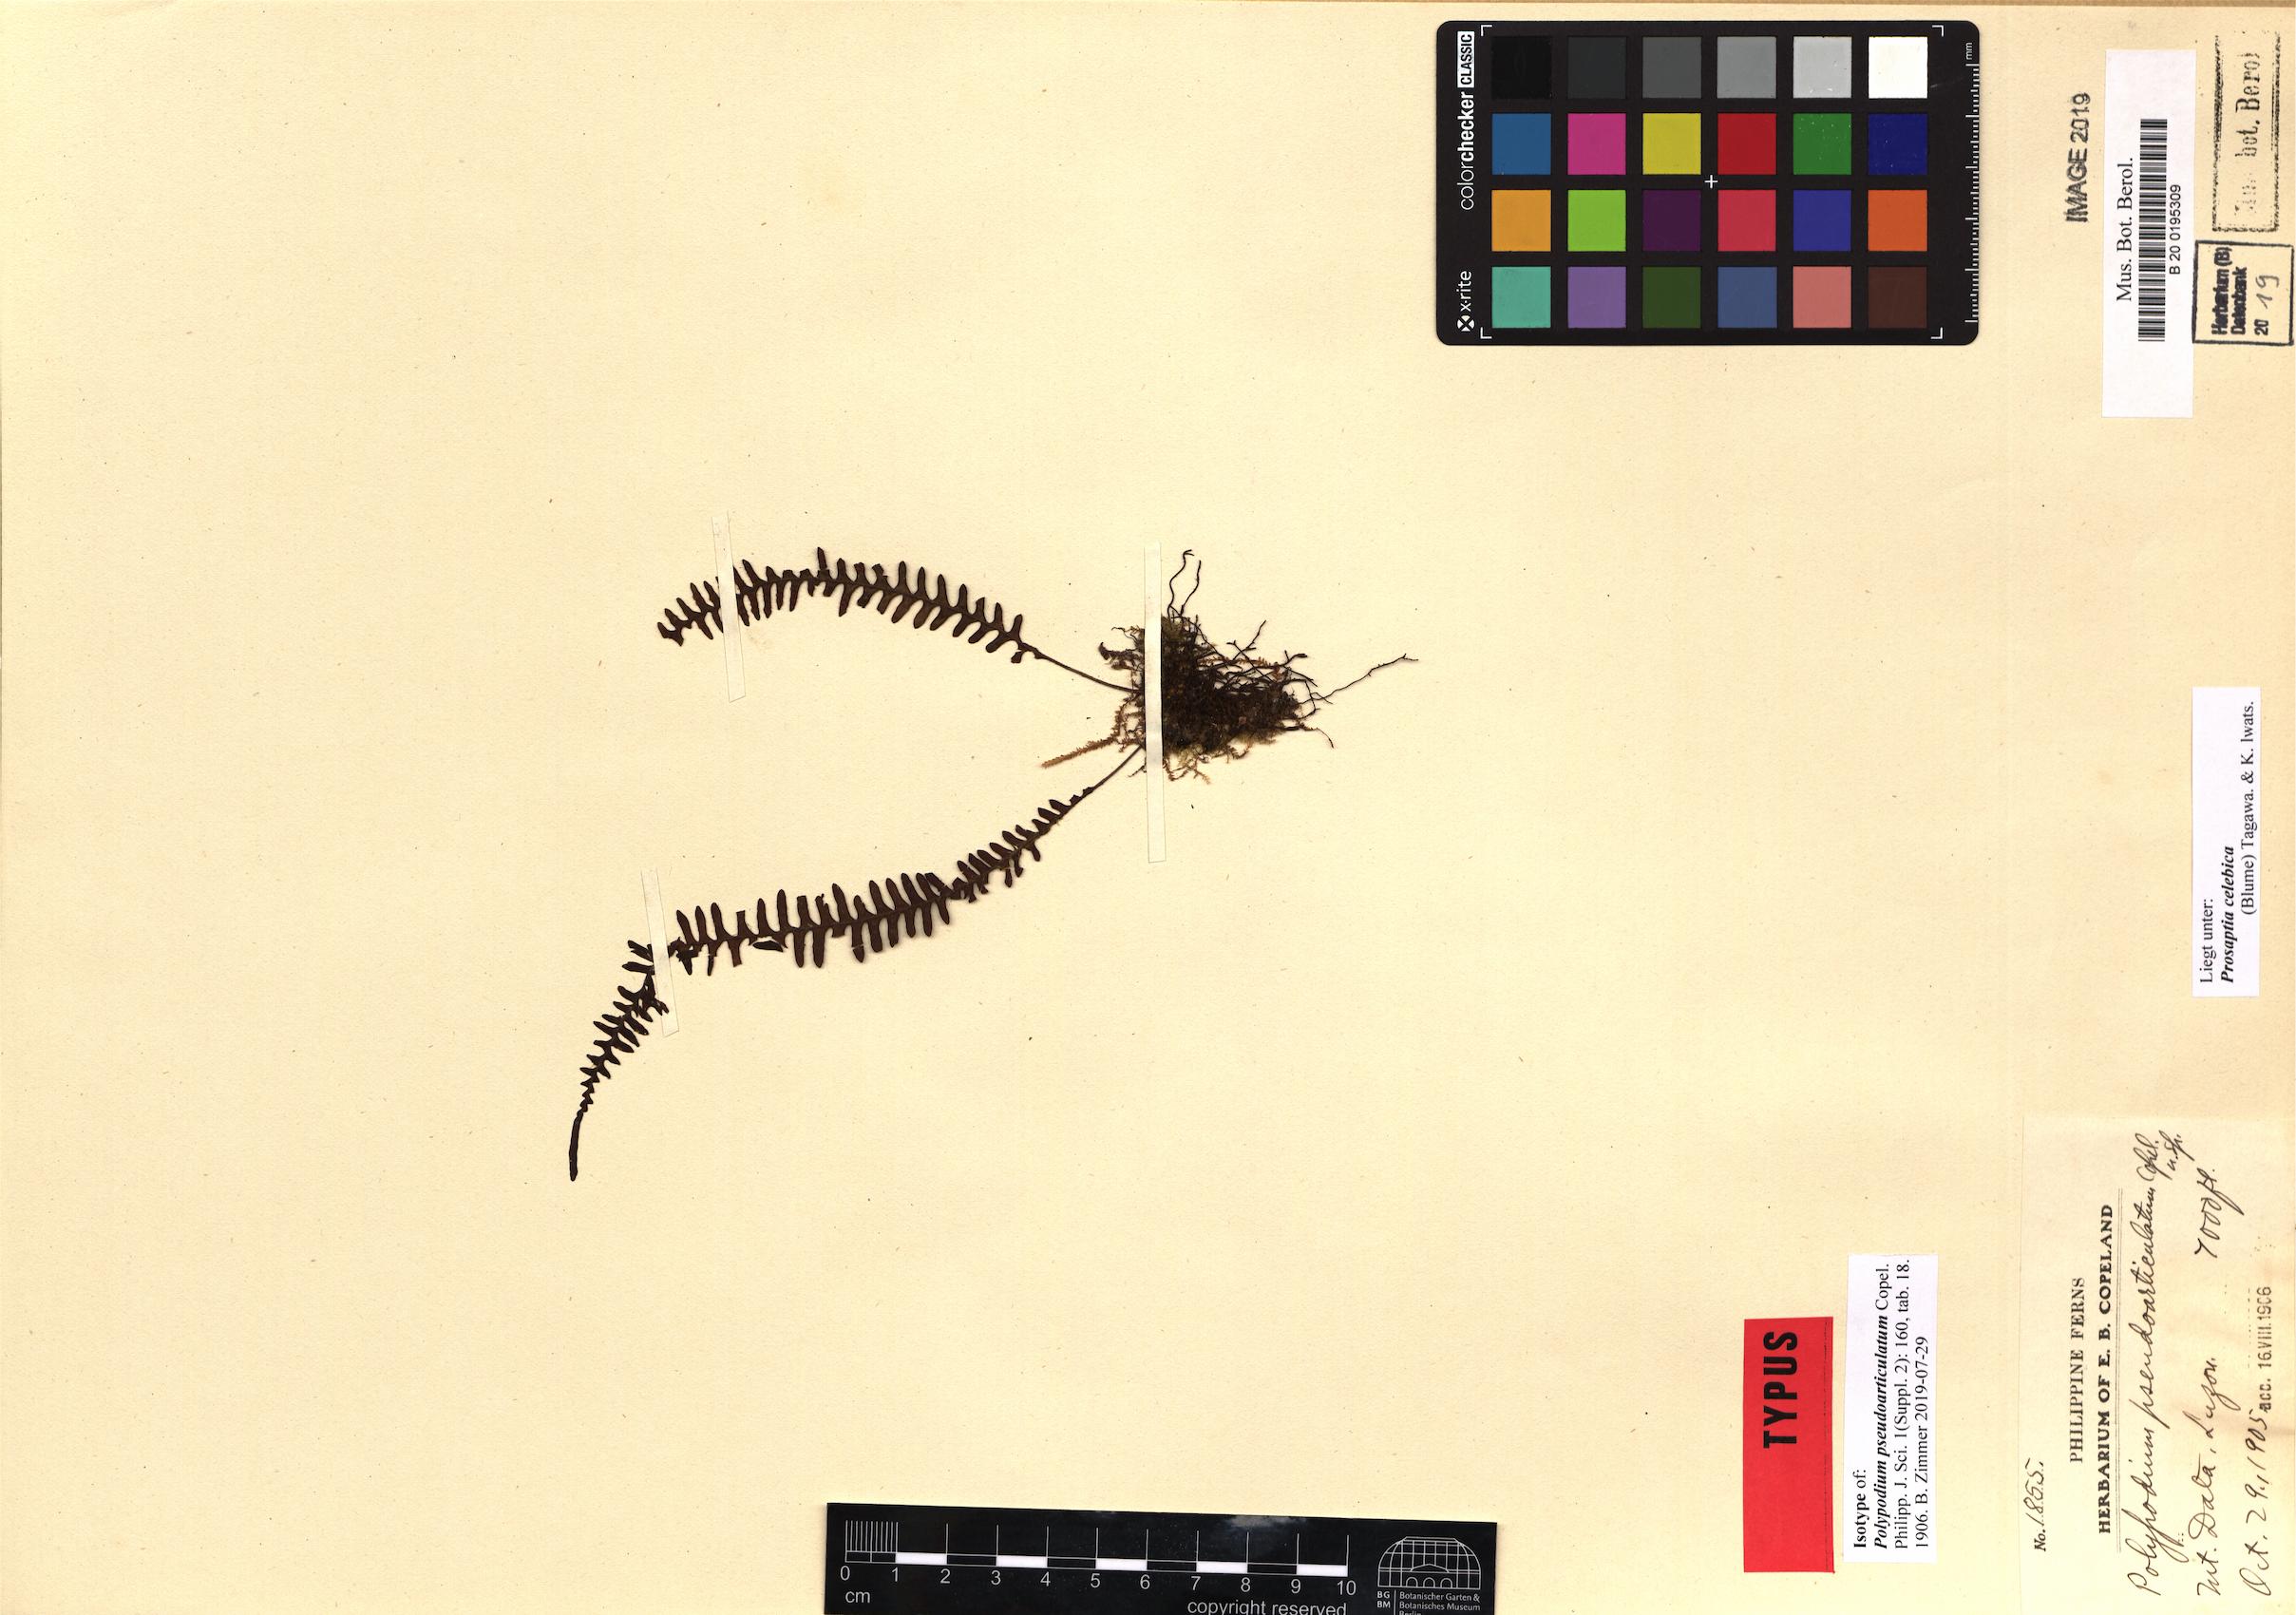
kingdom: Plantae
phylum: Tracheophyta
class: Polypodiopsida
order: Polypodiales
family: Polypodiaceae
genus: Prosaptia
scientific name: Prosaptia celebica
